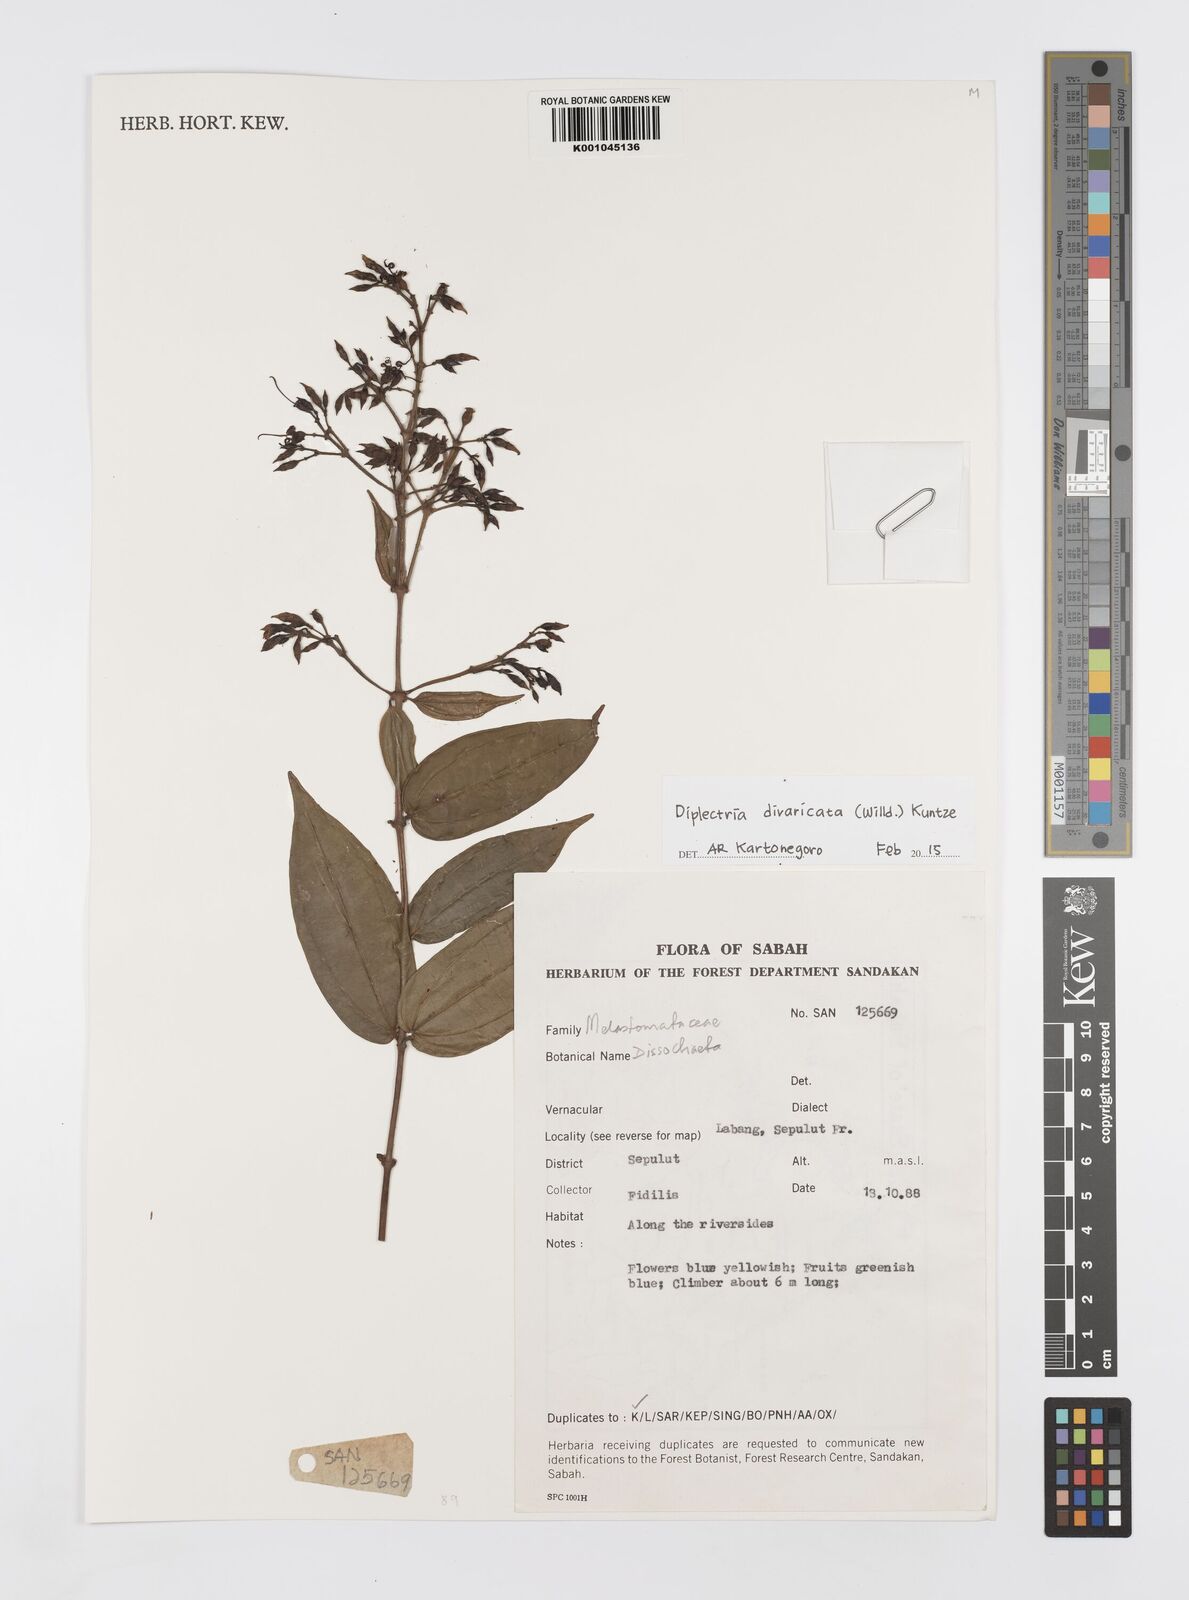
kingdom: Plantae
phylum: Tracheophyta
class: Magnoliopsida
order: Myrtales
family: Melastomataceae
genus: Diplectria
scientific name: Diplectria divaricata
